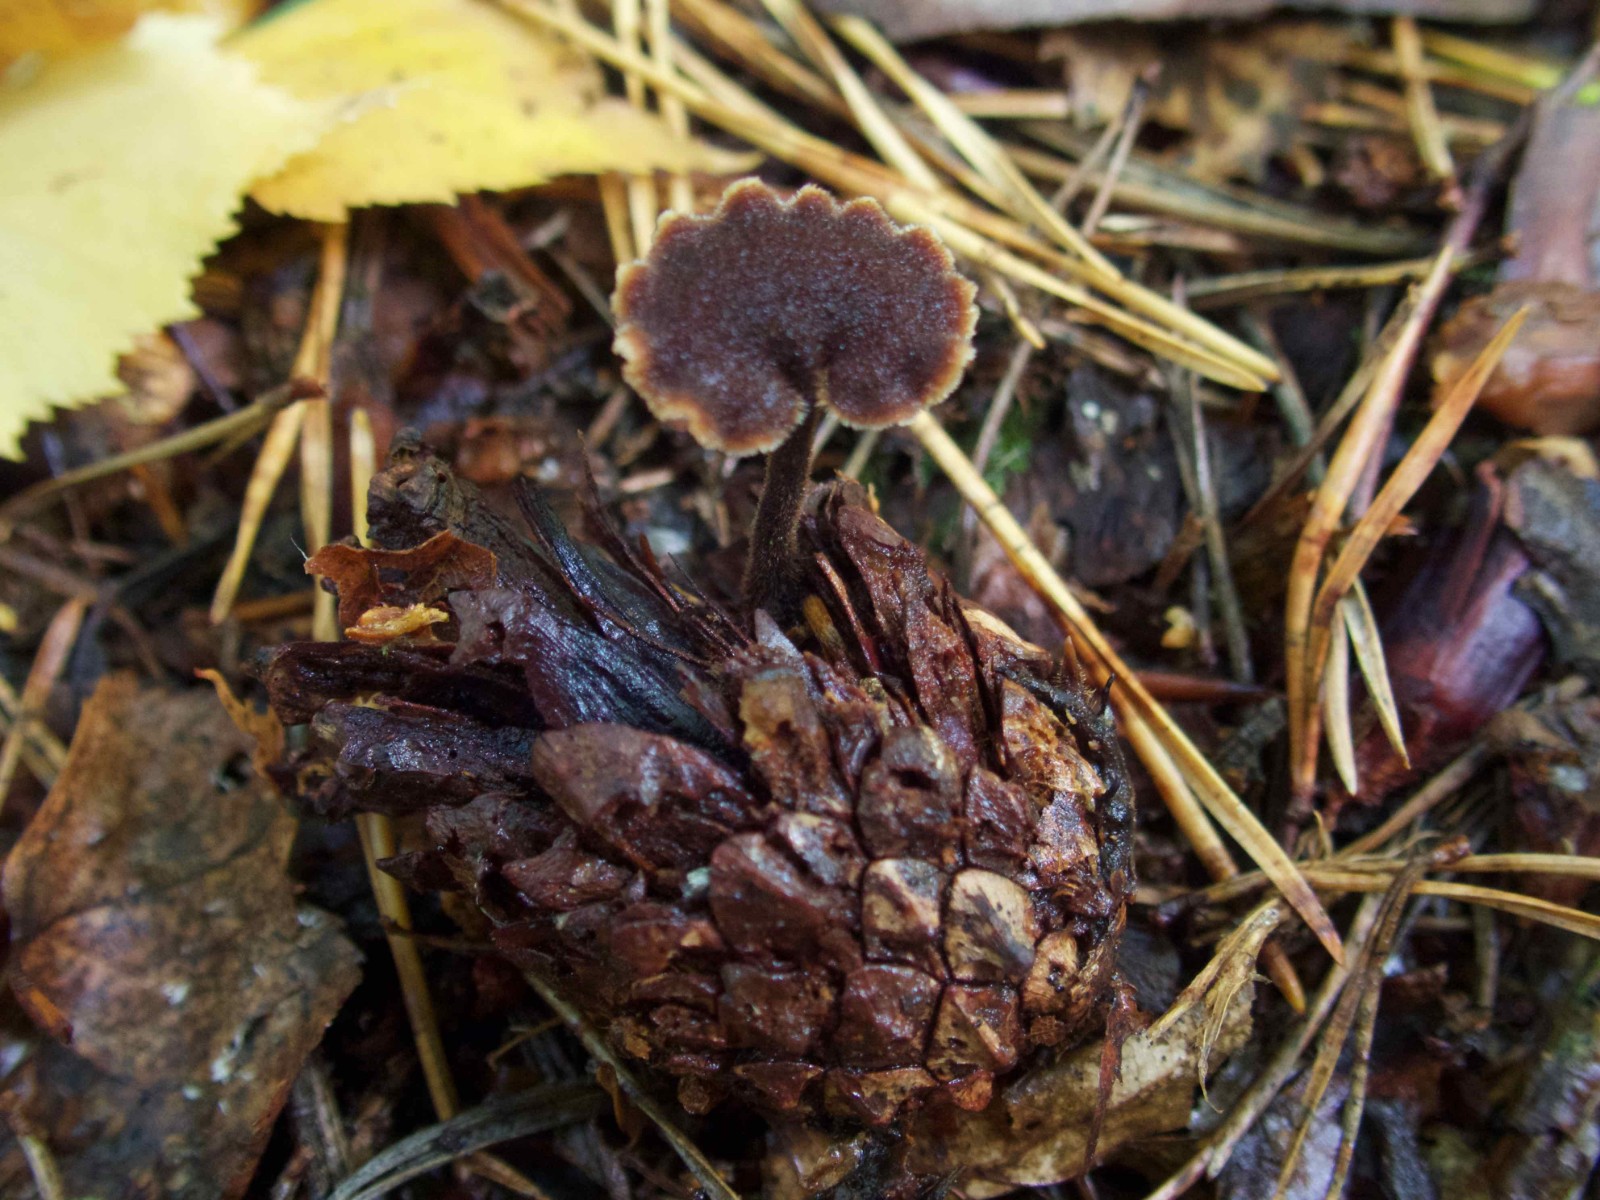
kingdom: Fungi
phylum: Basidiomycota
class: Agaricomycetes
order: Russulales
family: Auriscalpiaceae
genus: Auriscalpium
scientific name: Auriscalpium vulgare
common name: koglepigsvamp
